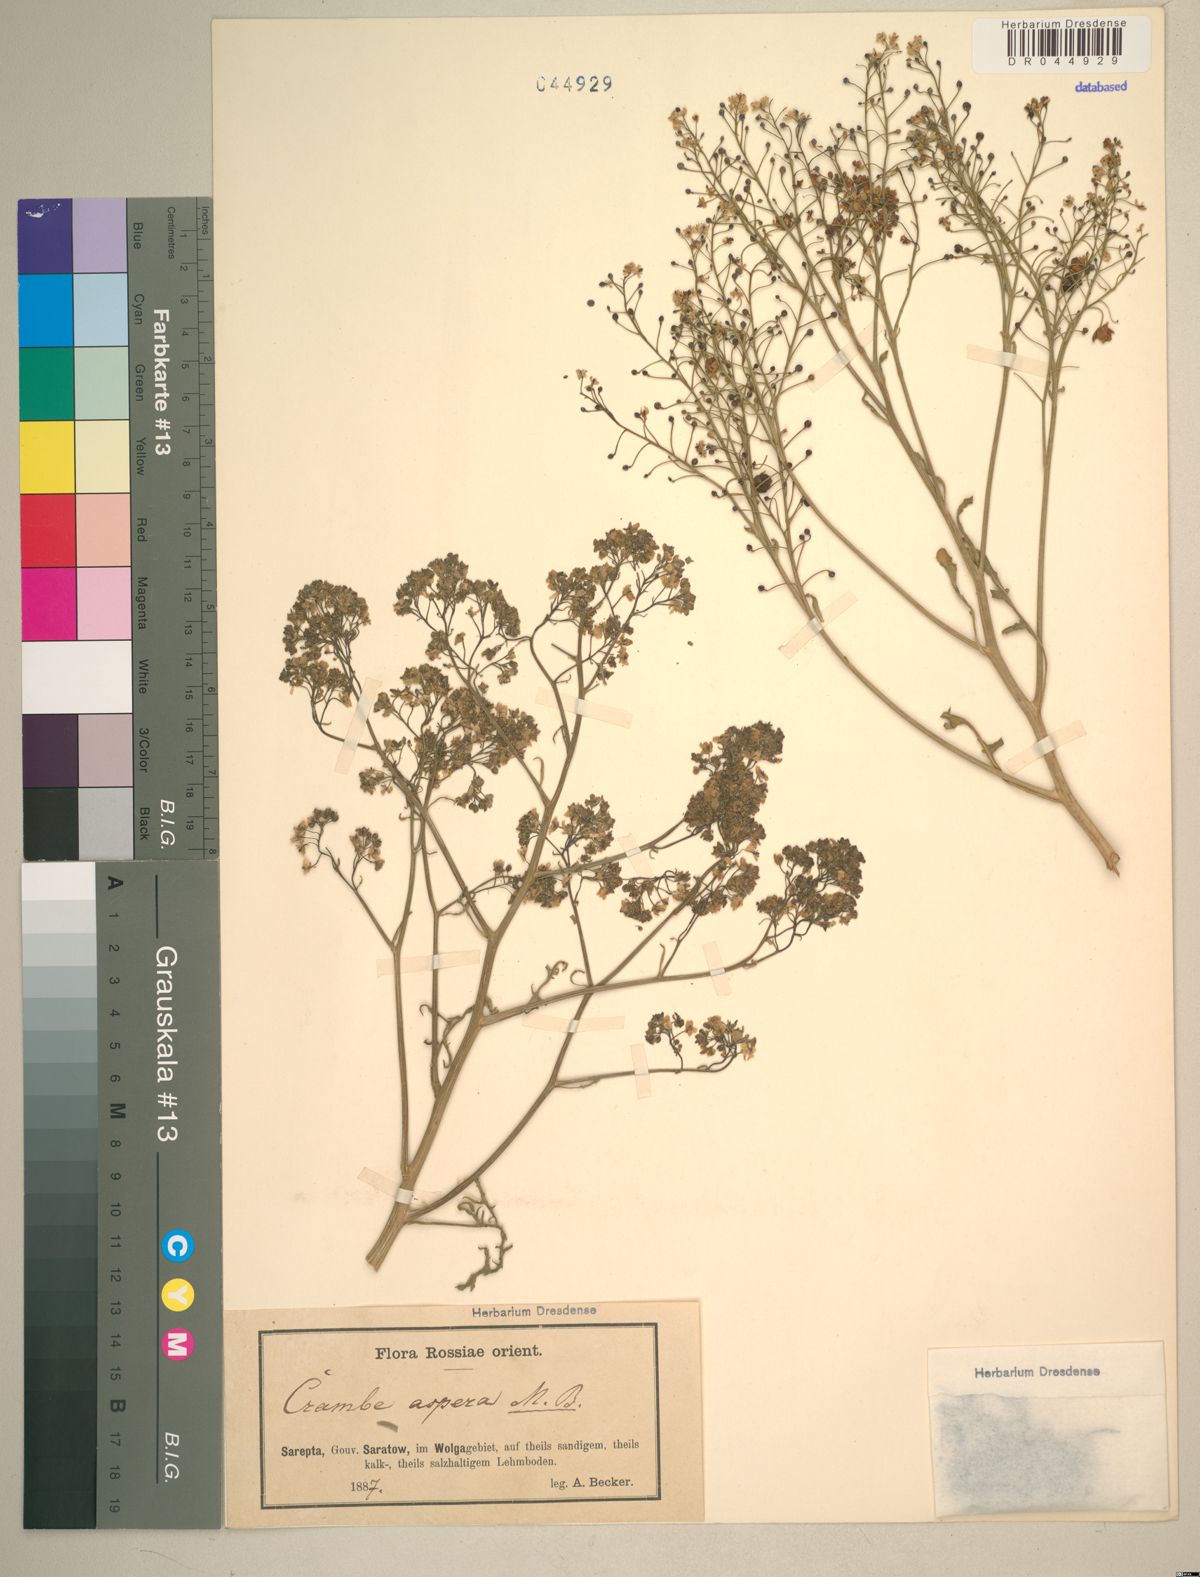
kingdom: Plantae
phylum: Tracheophyta
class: Magnoliopsida
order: Brassicales
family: Brassicaceae
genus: Crambe
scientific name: Crambe aspera
